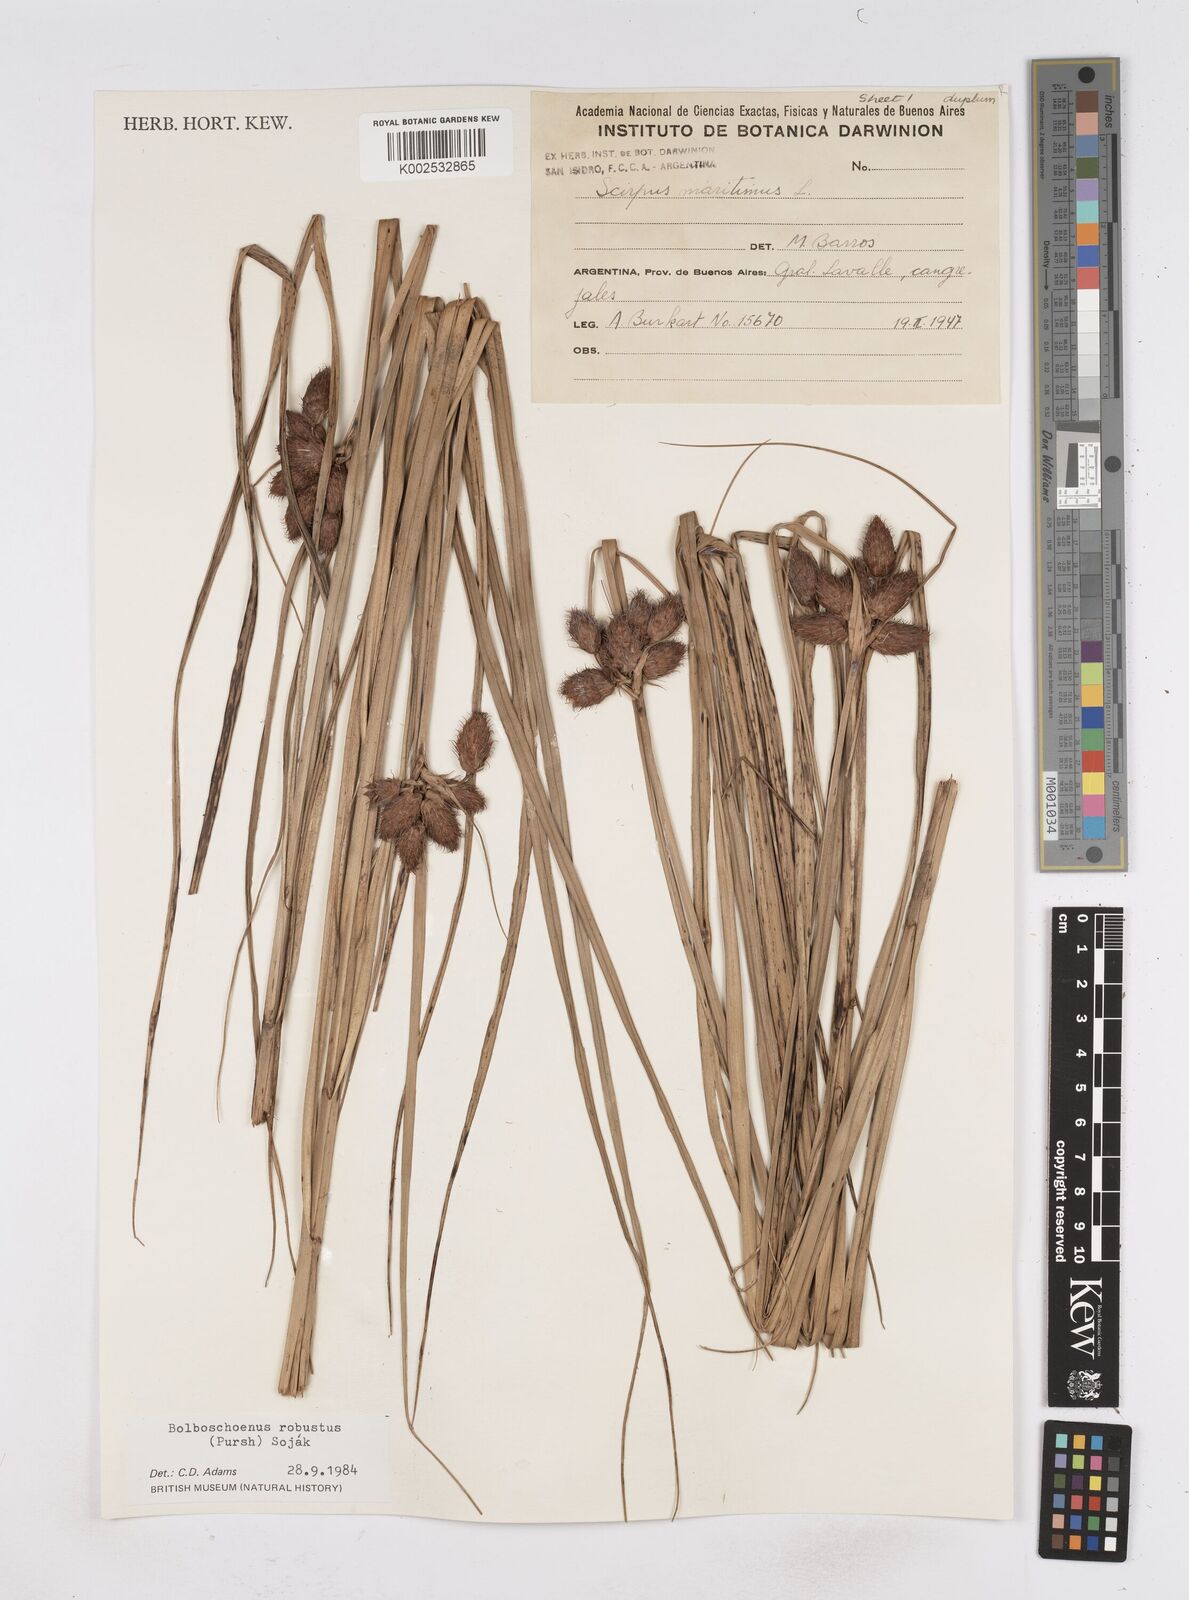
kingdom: Plantae
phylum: Tracheophyta
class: Liliopsida
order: Poales
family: Cyperaceae
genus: Bolboschoenus
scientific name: Bolboschoenus robustus
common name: Seacoast bulrush
